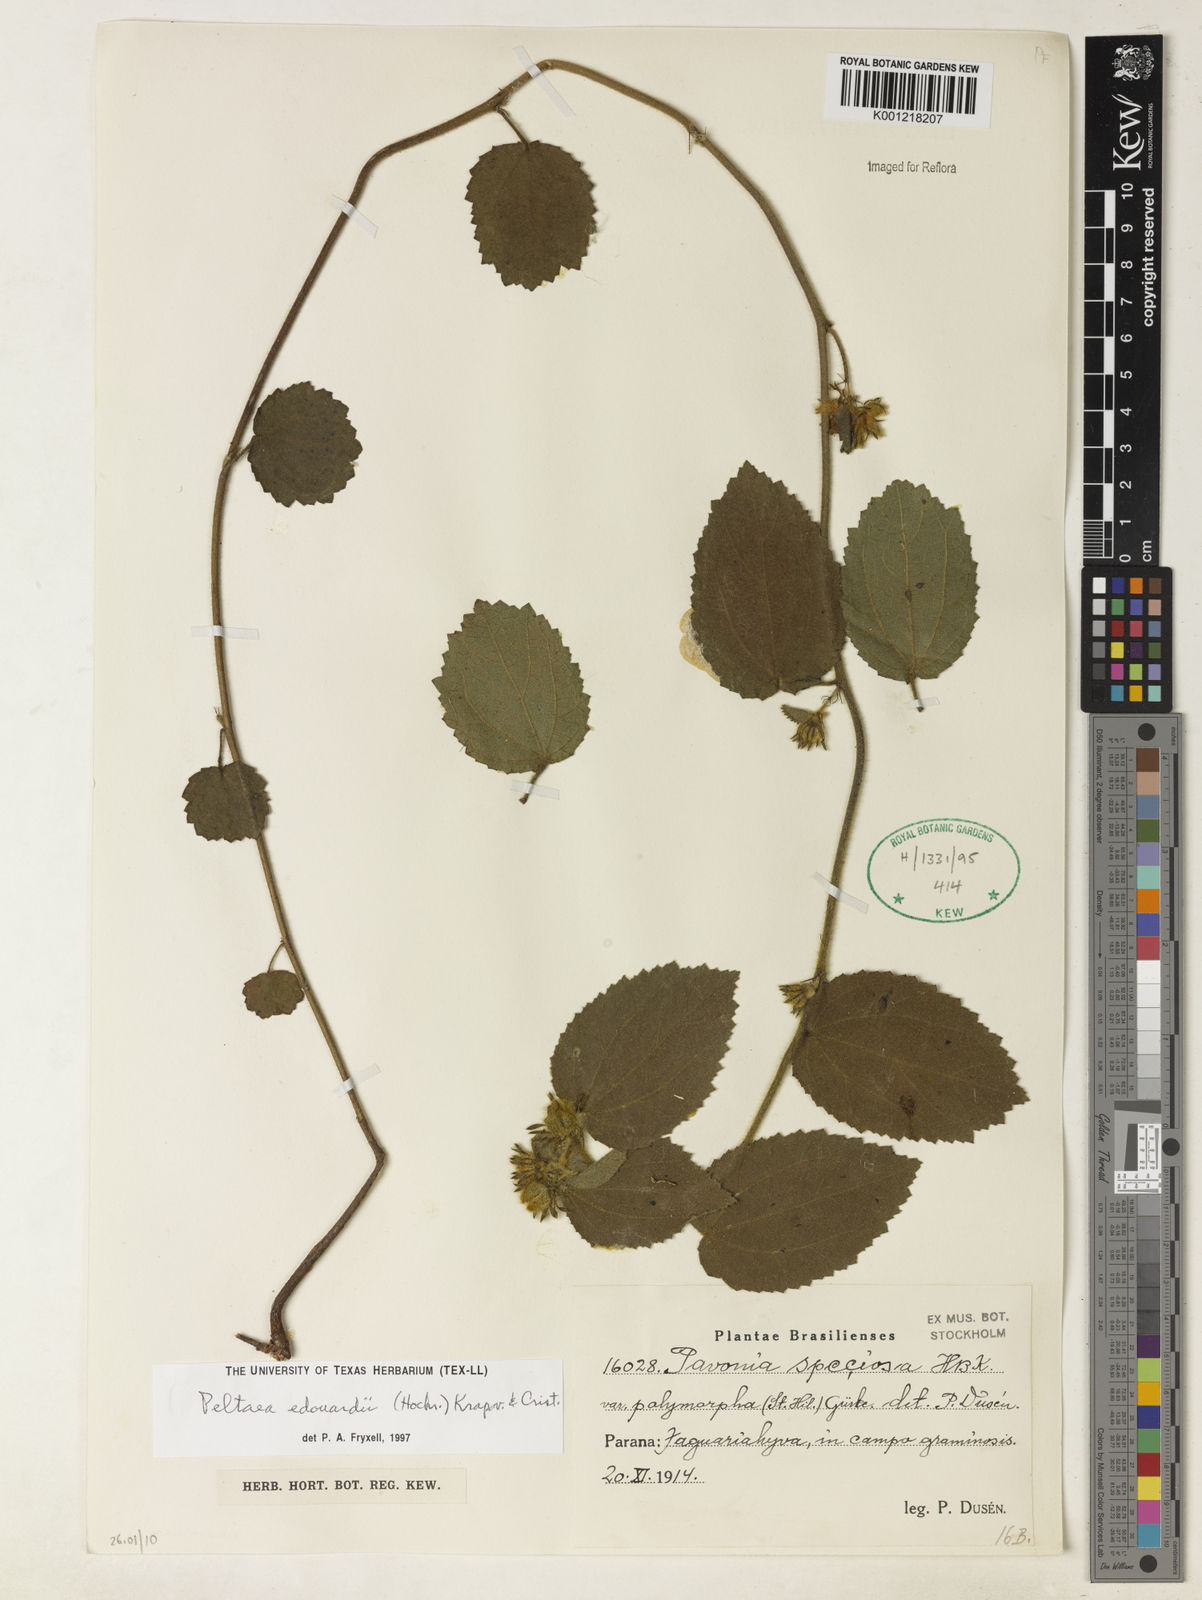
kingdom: Plantae
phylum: Tracheophyta
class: Magnoliopsida
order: Malvales
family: Malvaceae
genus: Peltaea
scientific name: Peltaea
